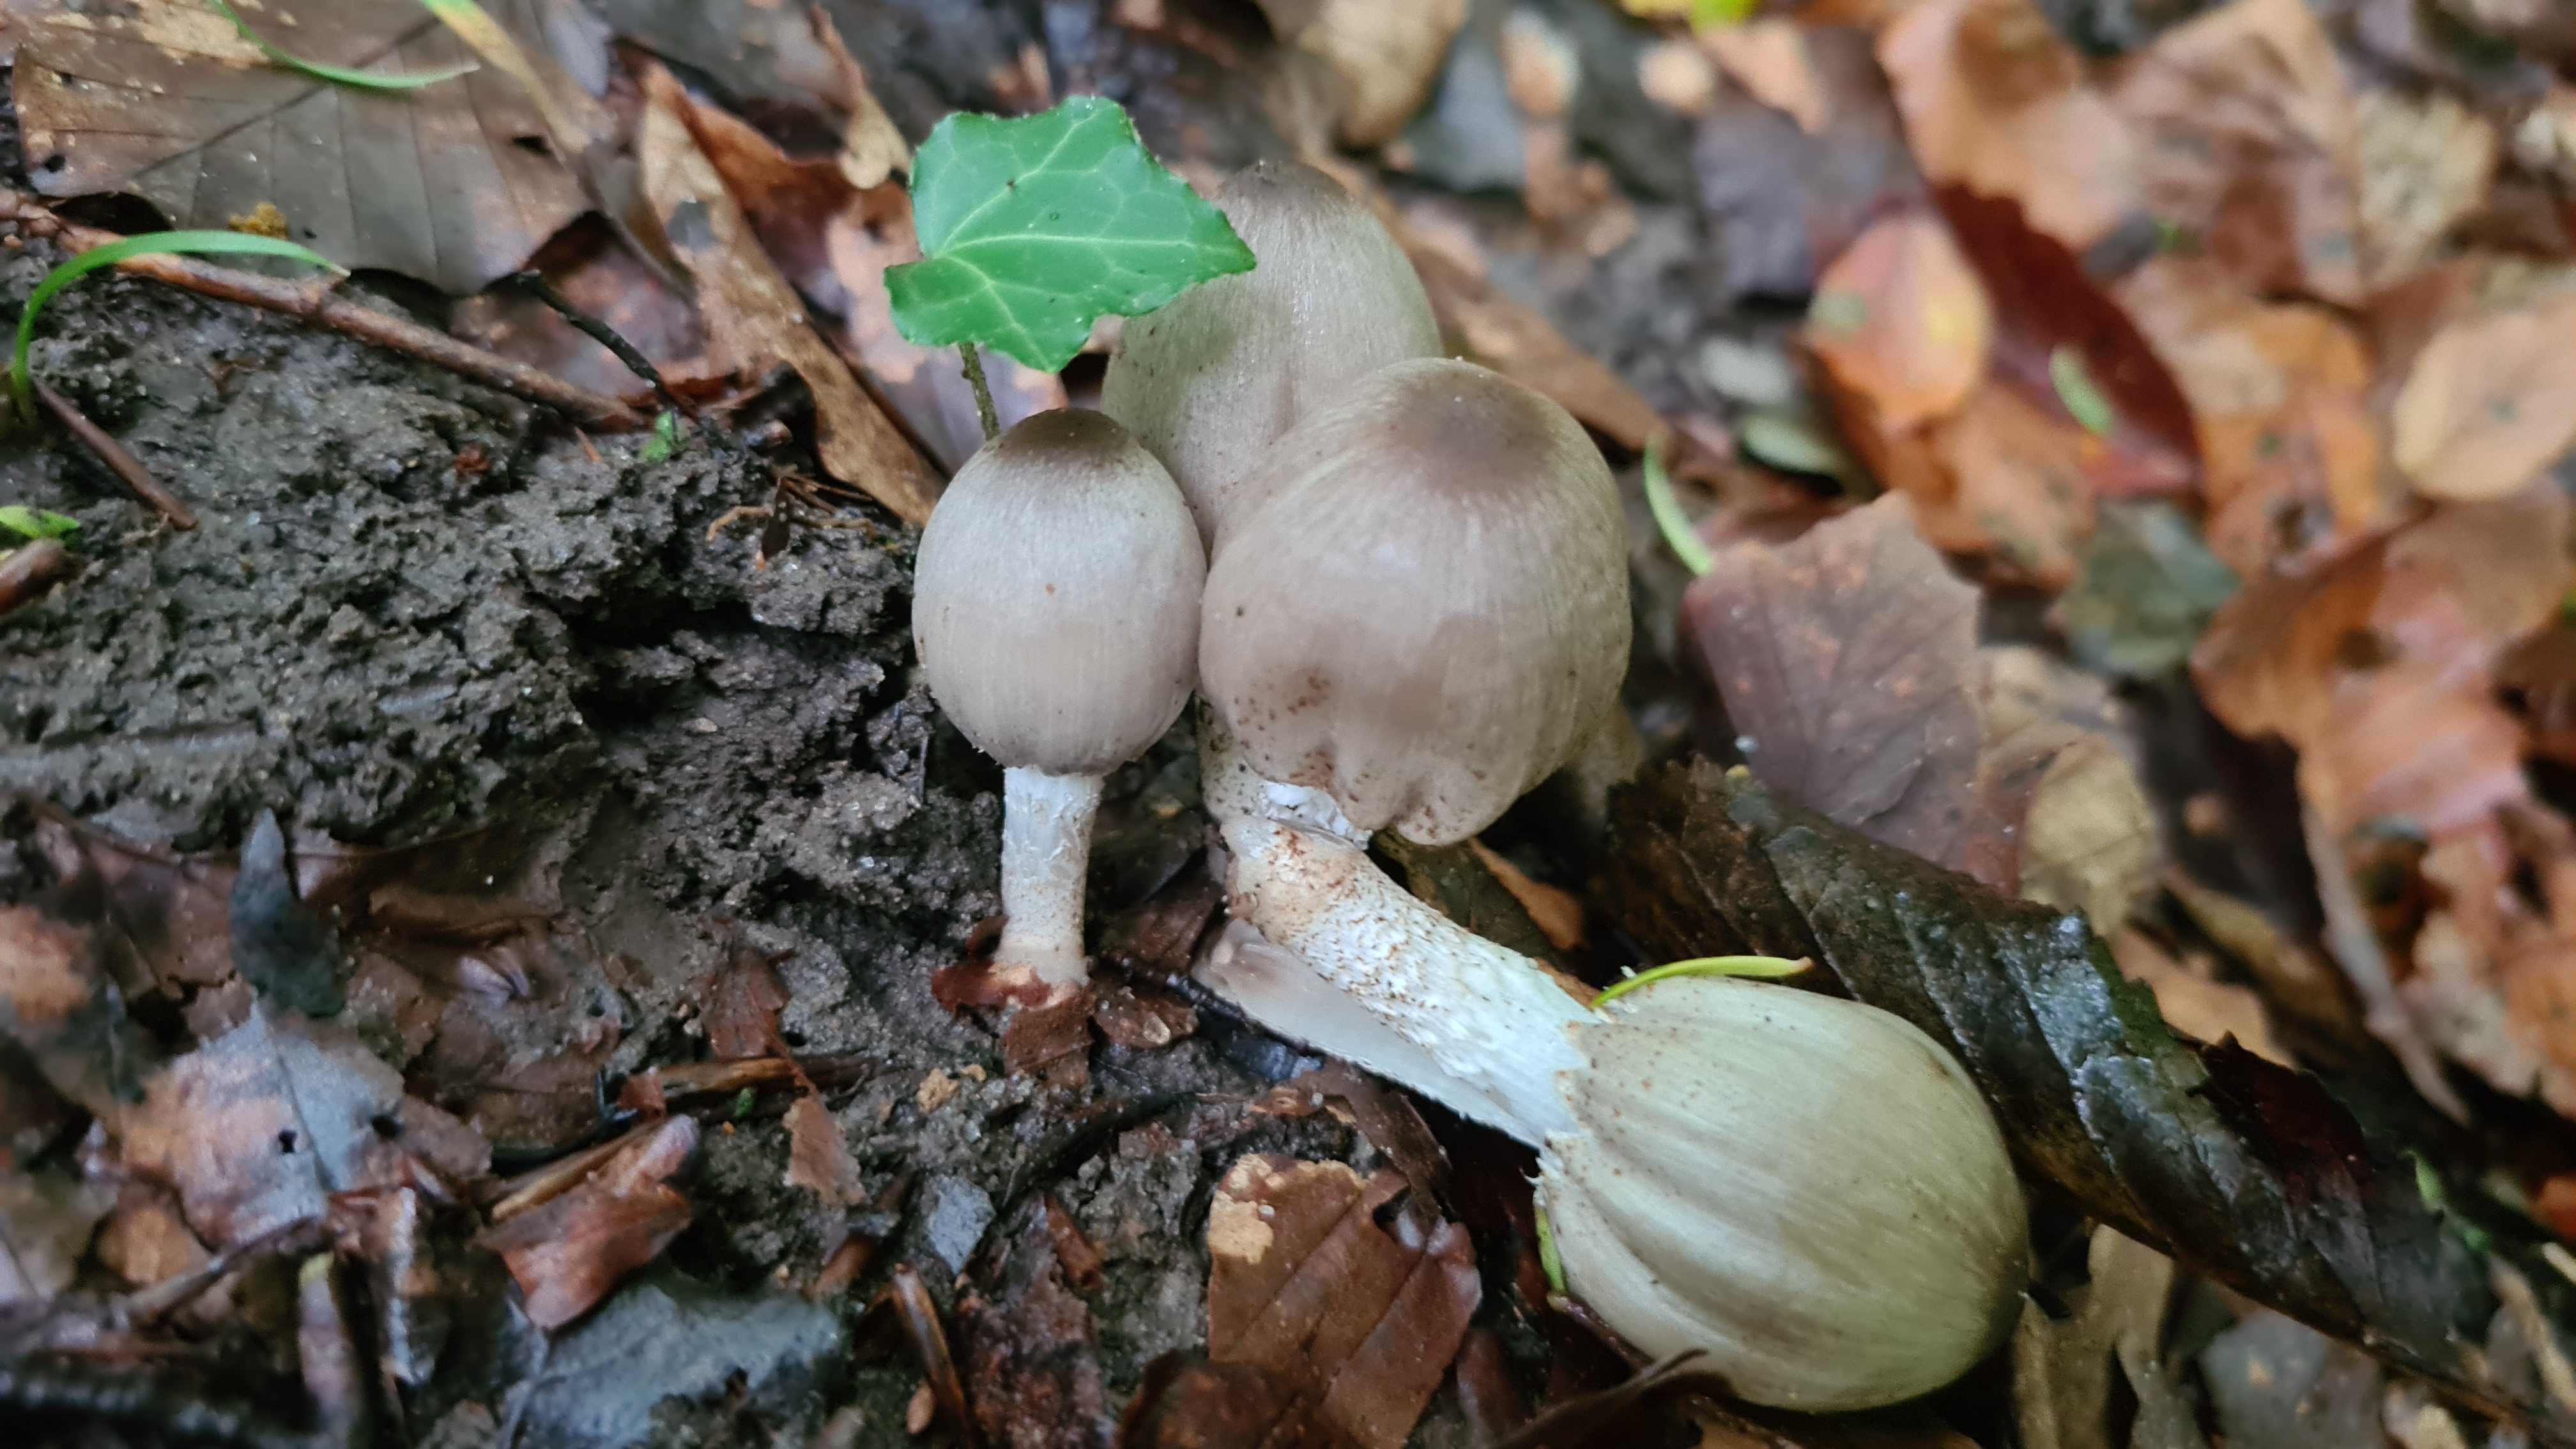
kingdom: Fungi
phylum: Basidiomycota
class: Agaricomycetes
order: Agaricales
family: Psathyrellaceae
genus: Coprinopsis
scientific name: Coprinopsis romagnesiana
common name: brunskællet blækhat
